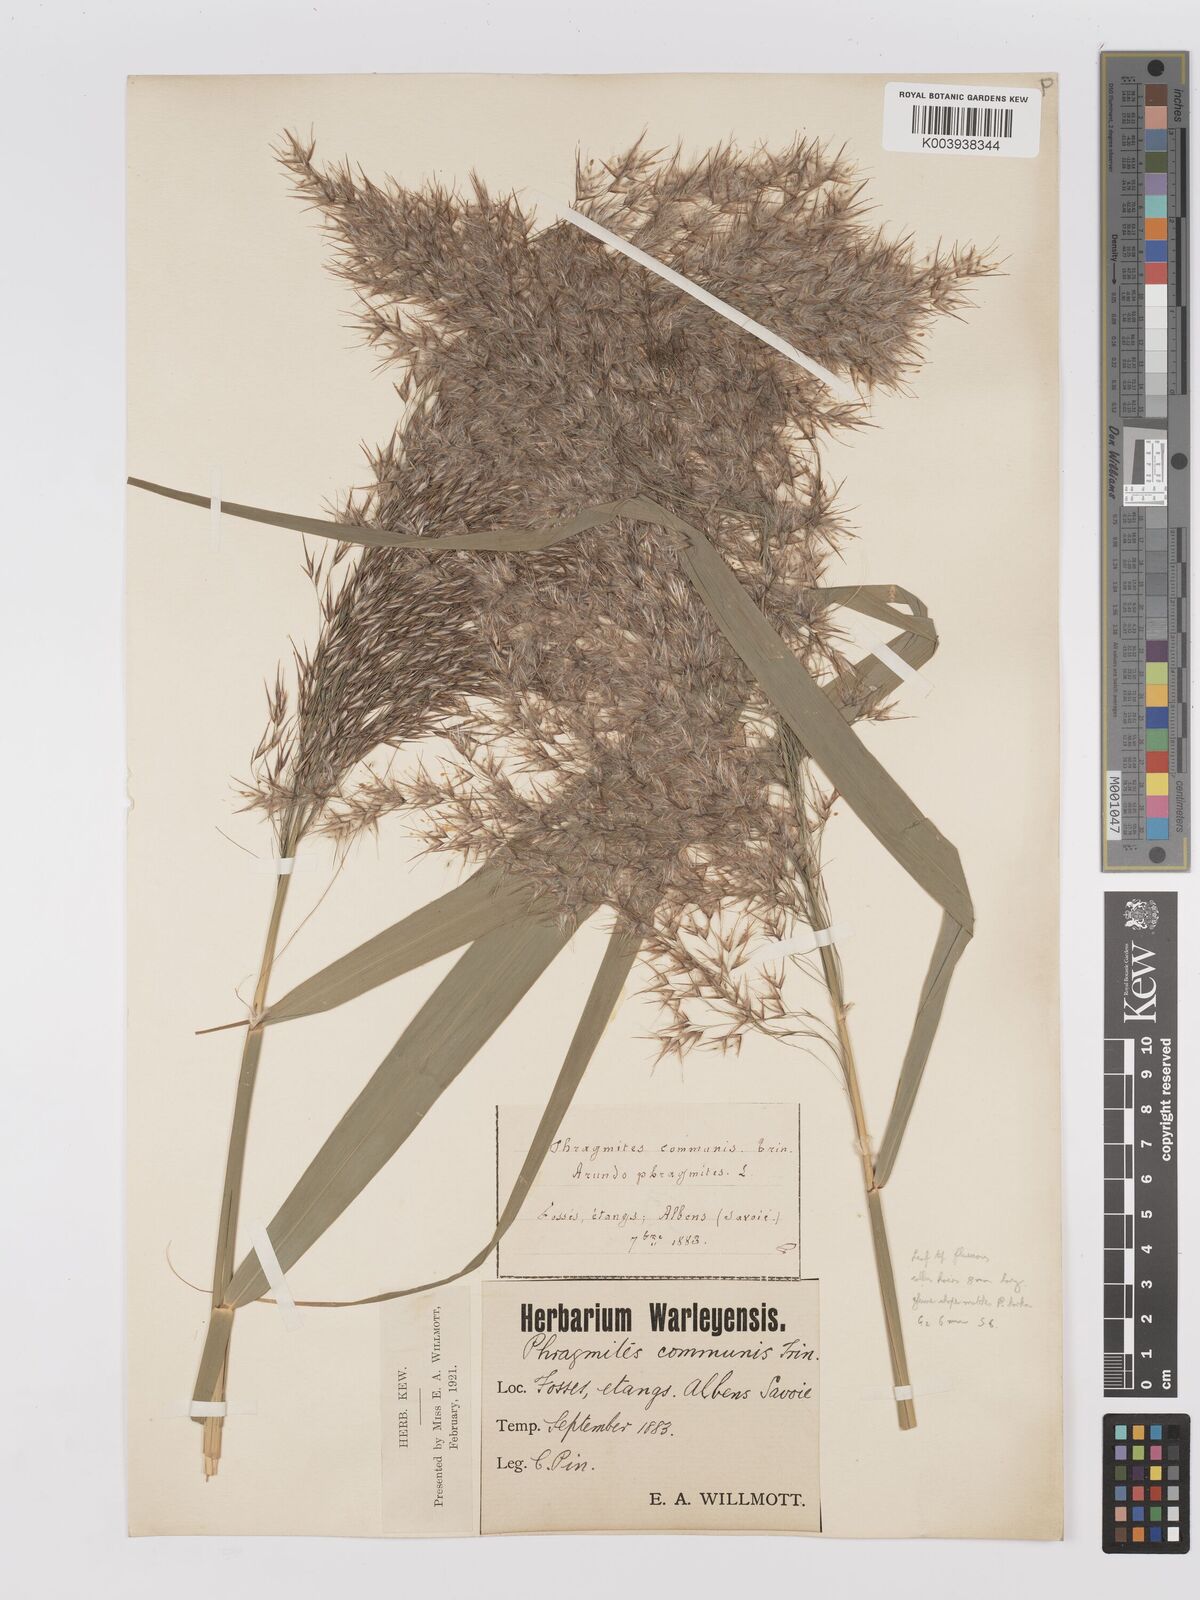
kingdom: Plantae
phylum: Tracheophyta
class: Liliopsida
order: Poales
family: Poaceae
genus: Phragmites
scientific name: Phragmites australis
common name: Common reed
